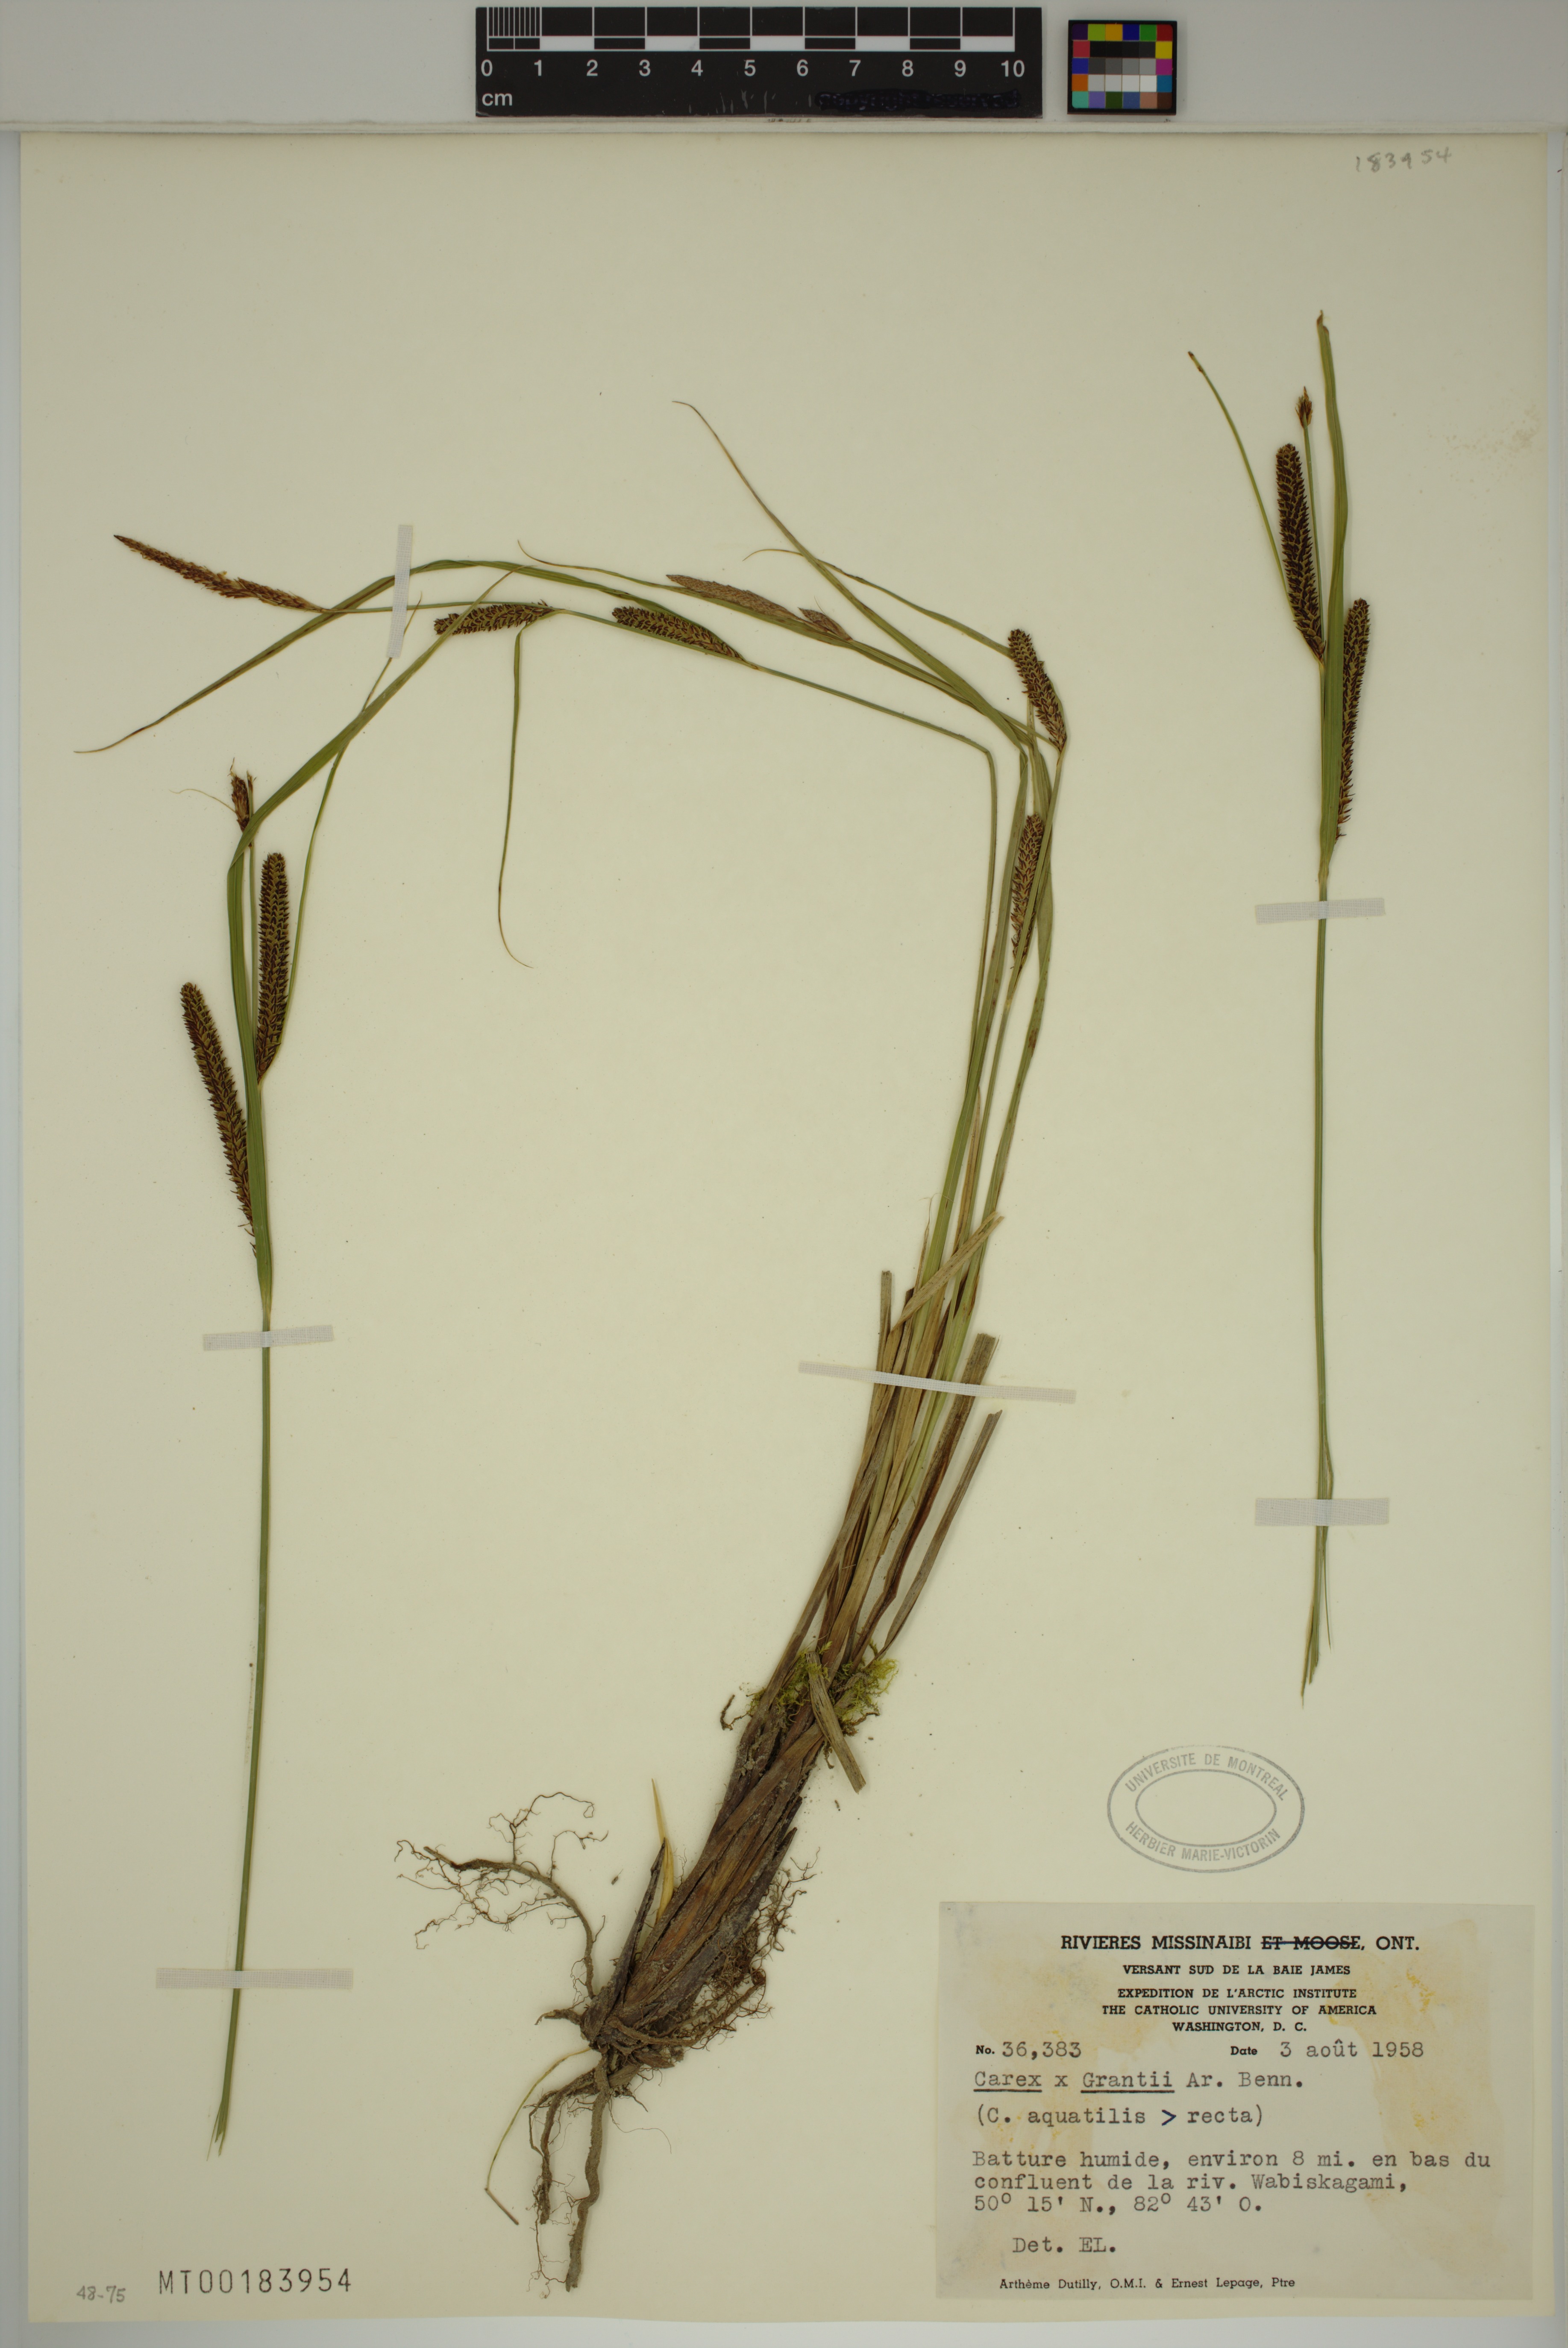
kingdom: Plantae
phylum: Tracheophyta
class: Liliopsida
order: Poales
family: Cyperaceae
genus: Carex
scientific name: Carex grantii
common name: Grant's sedge
